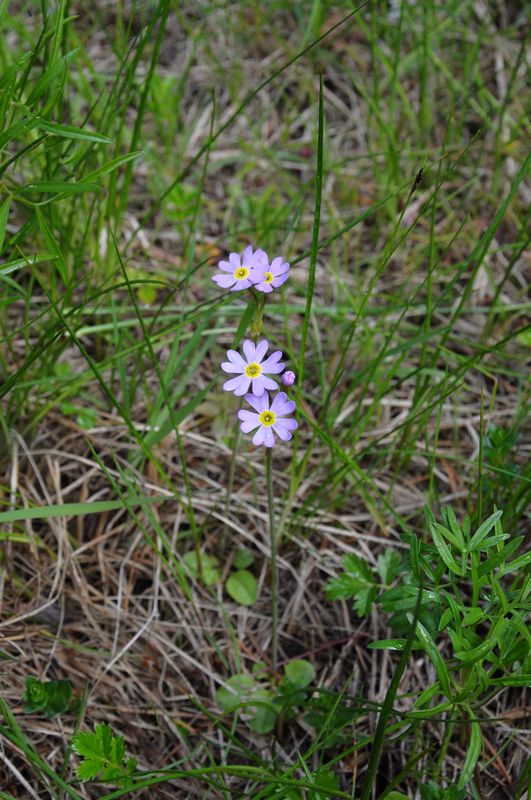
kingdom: Plantae
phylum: Tracheophyta
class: Magnoliopsida
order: Ericales
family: Primulaceae
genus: Primula
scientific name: Primula nutans
